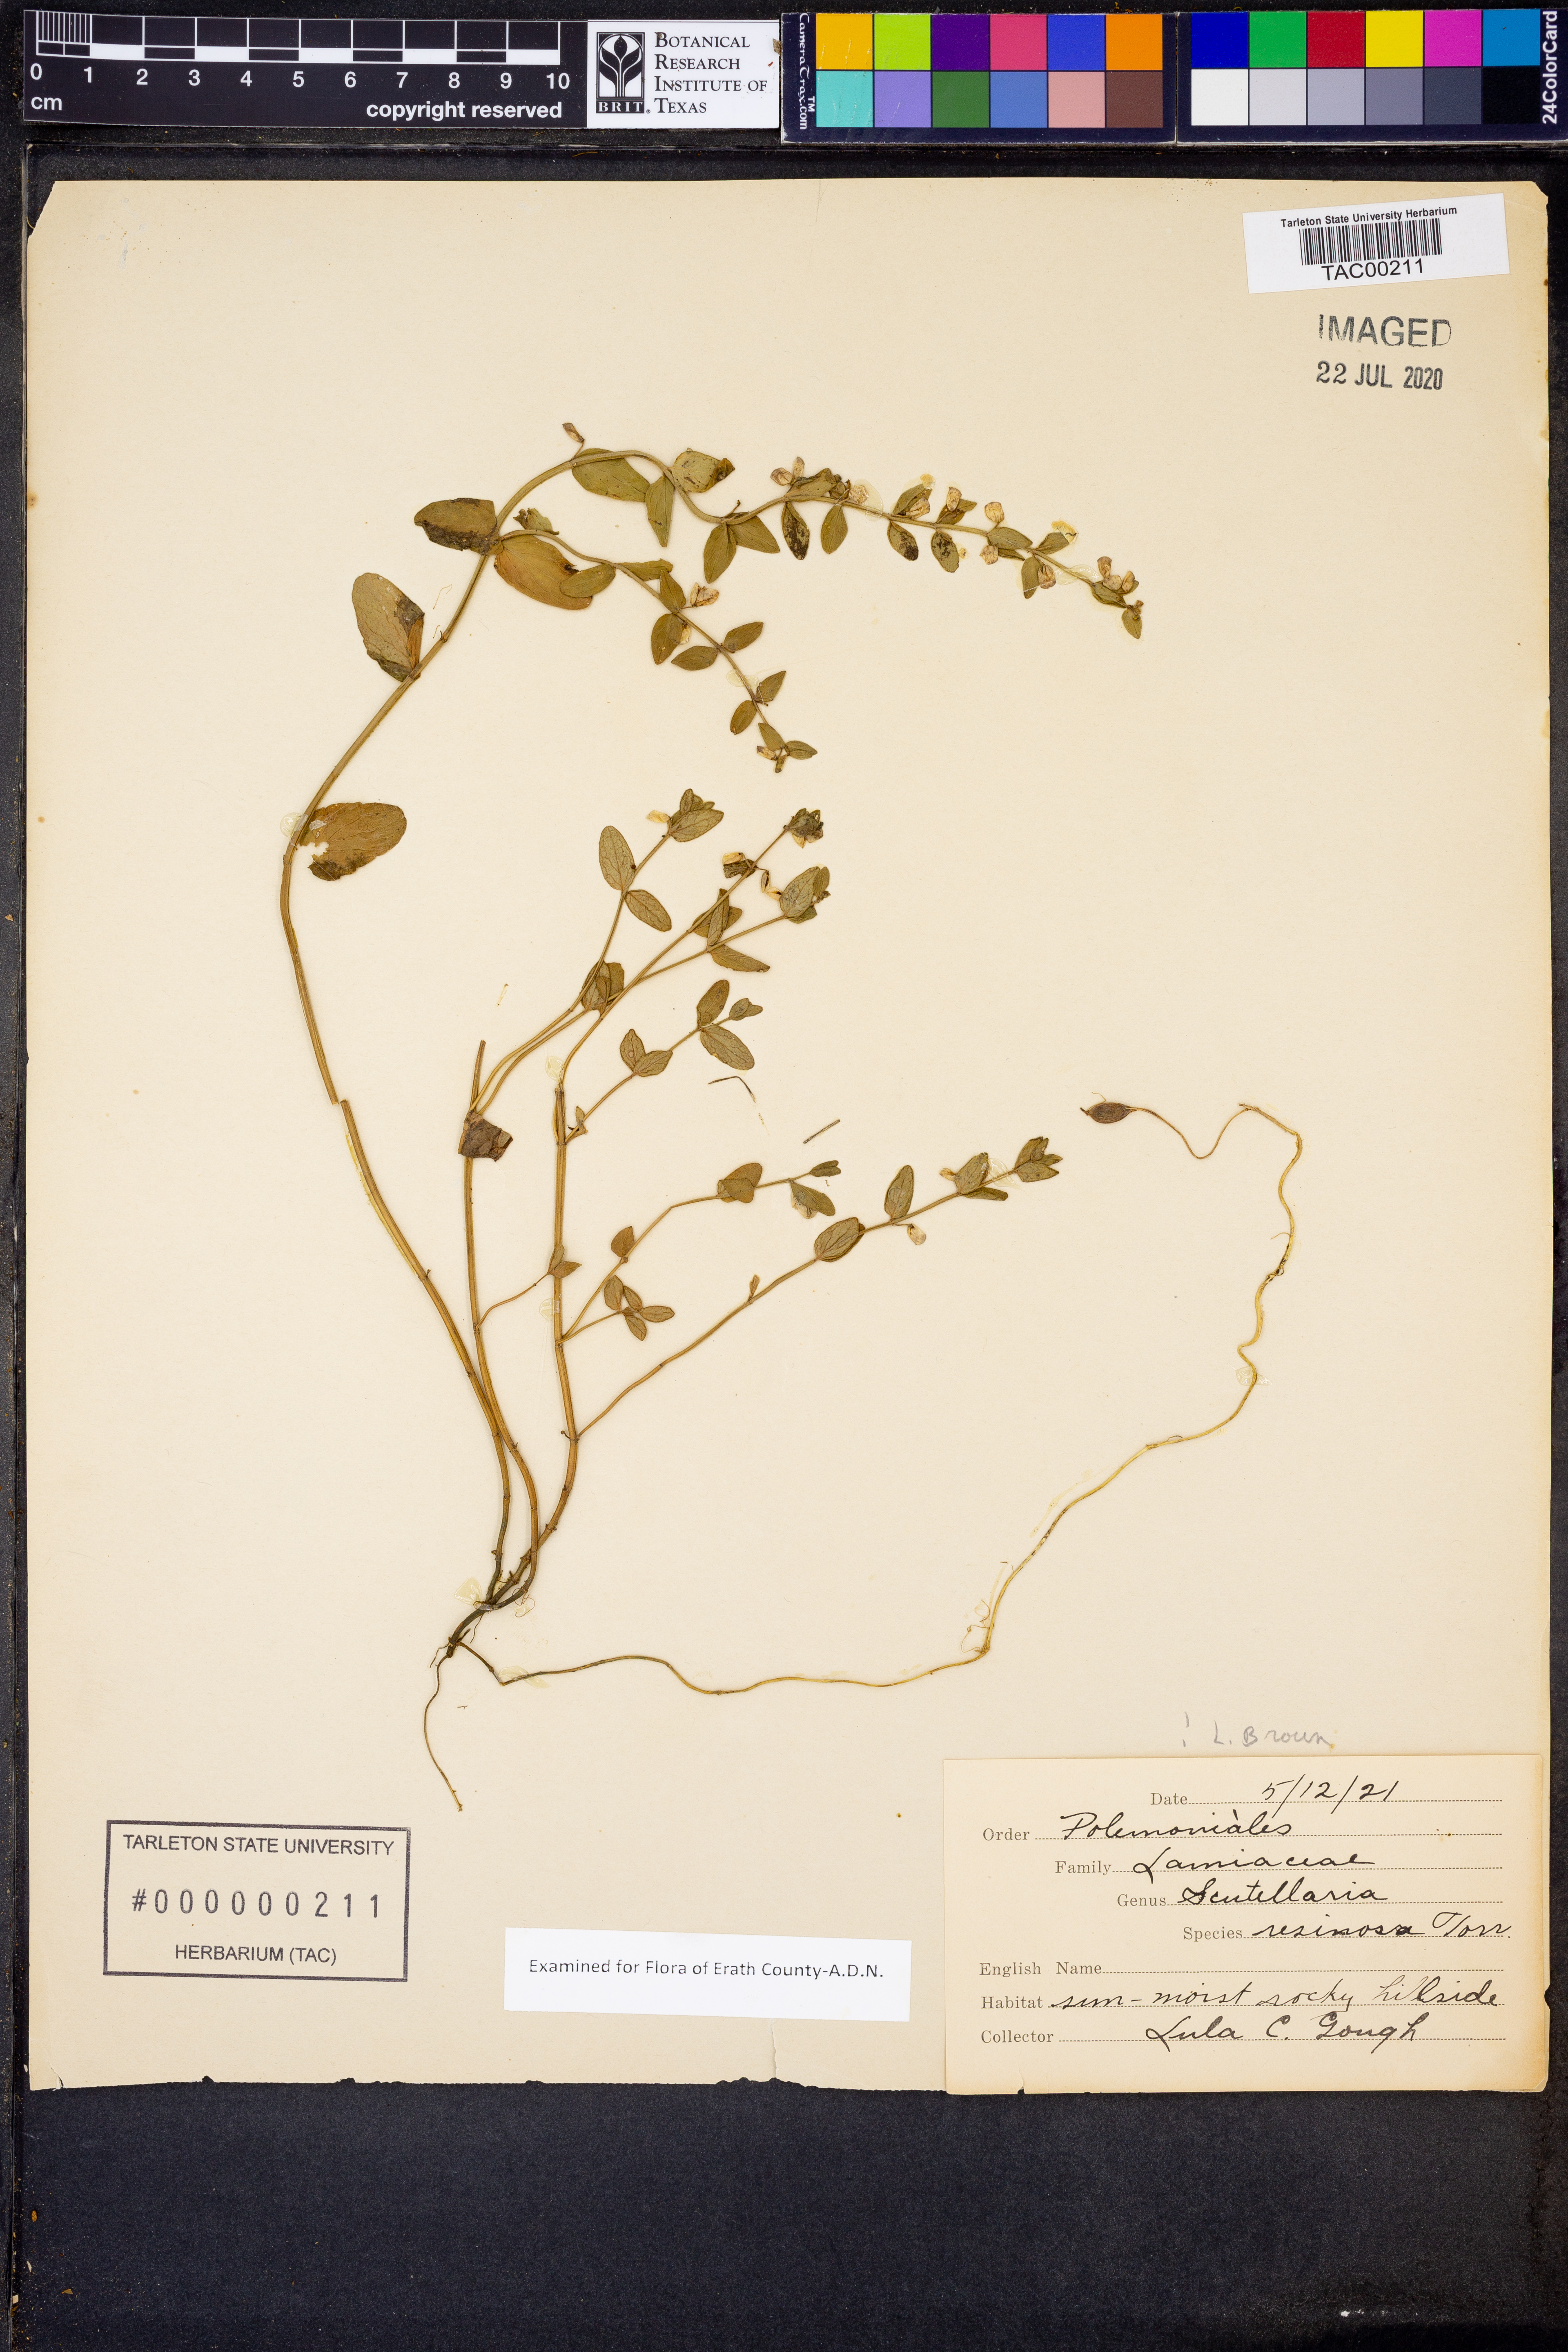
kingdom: Plantae
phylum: Tracheophyta
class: Magnoliopsida
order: Lamiales
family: Lamiaceae
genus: Scutellaria
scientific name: Scutellaria resinosa
